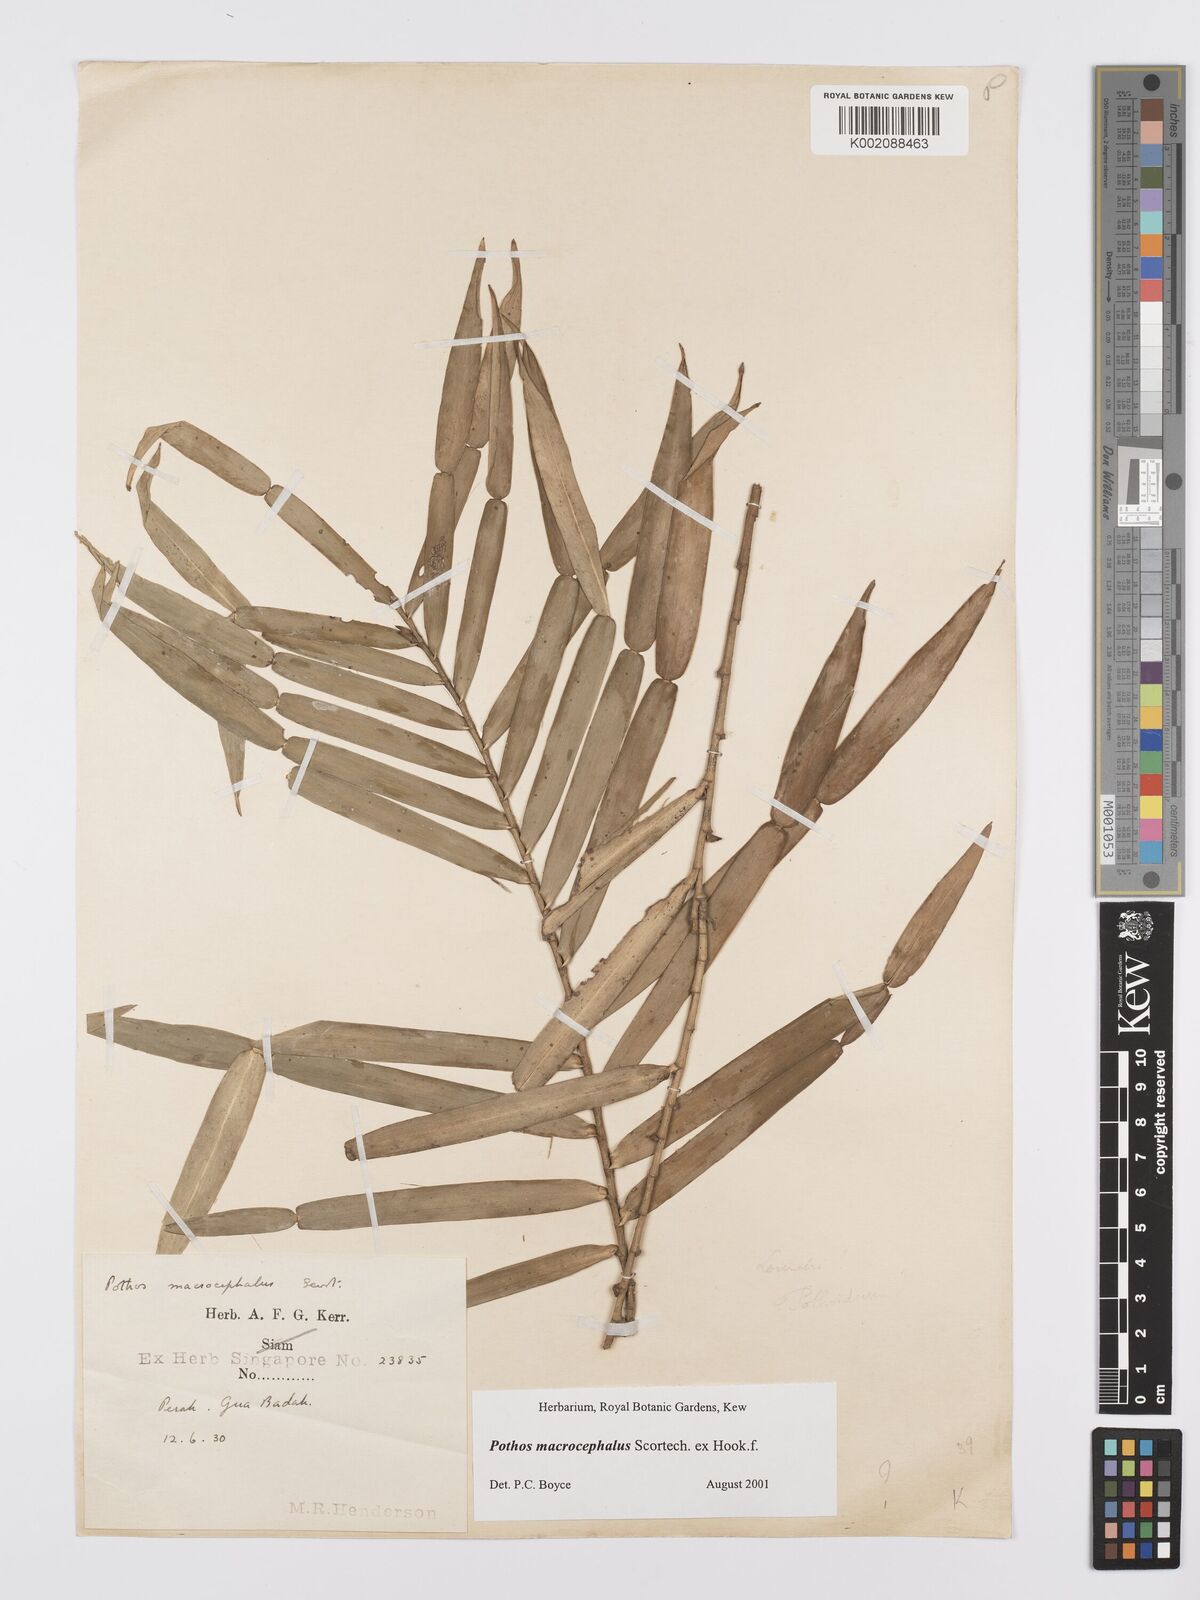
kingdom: Plantae
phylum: Tracheophyta
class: Liliopsida
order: Alismatales
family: Araceae
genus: Pothos
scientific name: Pothos macrocephalus
